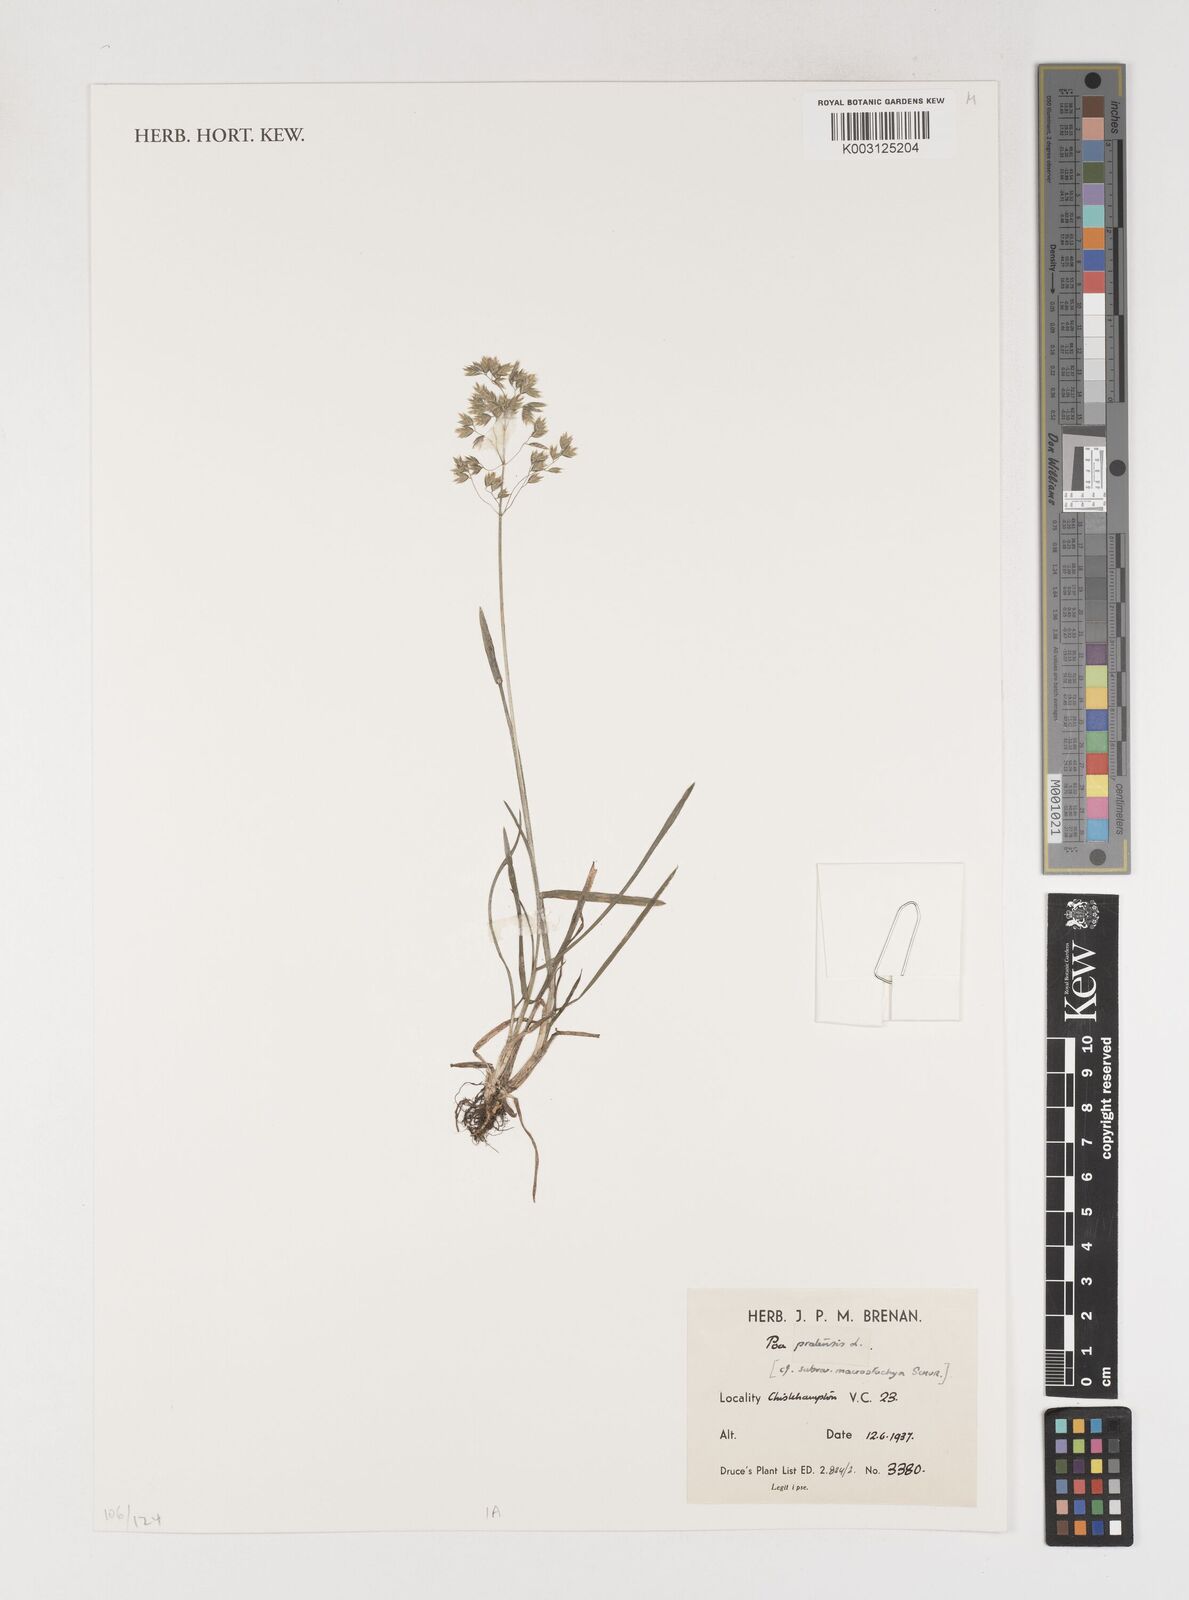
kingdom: Plantae
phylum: Tracheophyta
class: Liliopsida
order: Poales
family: Poaceae
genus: Poa
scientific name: Poa pratensis
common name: Kentucky bluegrass
